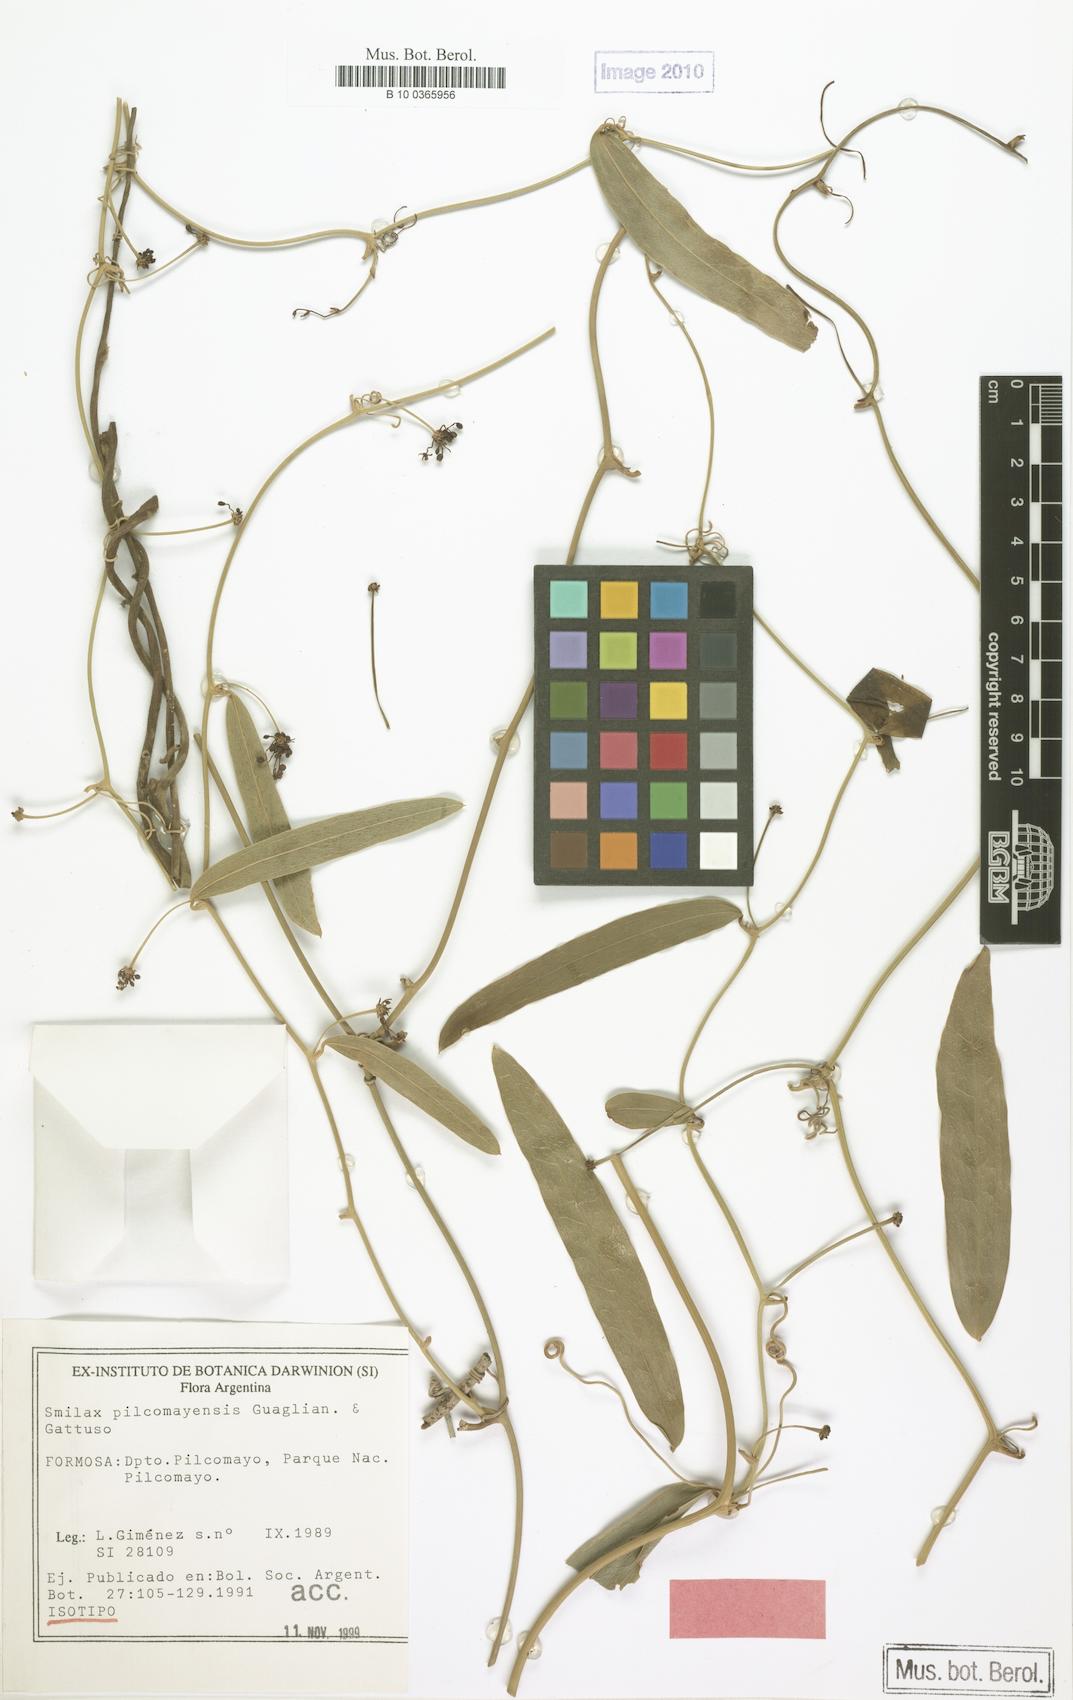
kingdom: Plantae
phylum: Tracheophyta
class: Liliopsida
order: Liliales
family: Smilacaceae
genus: Smilax
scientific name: Smilax pilcomayensis
